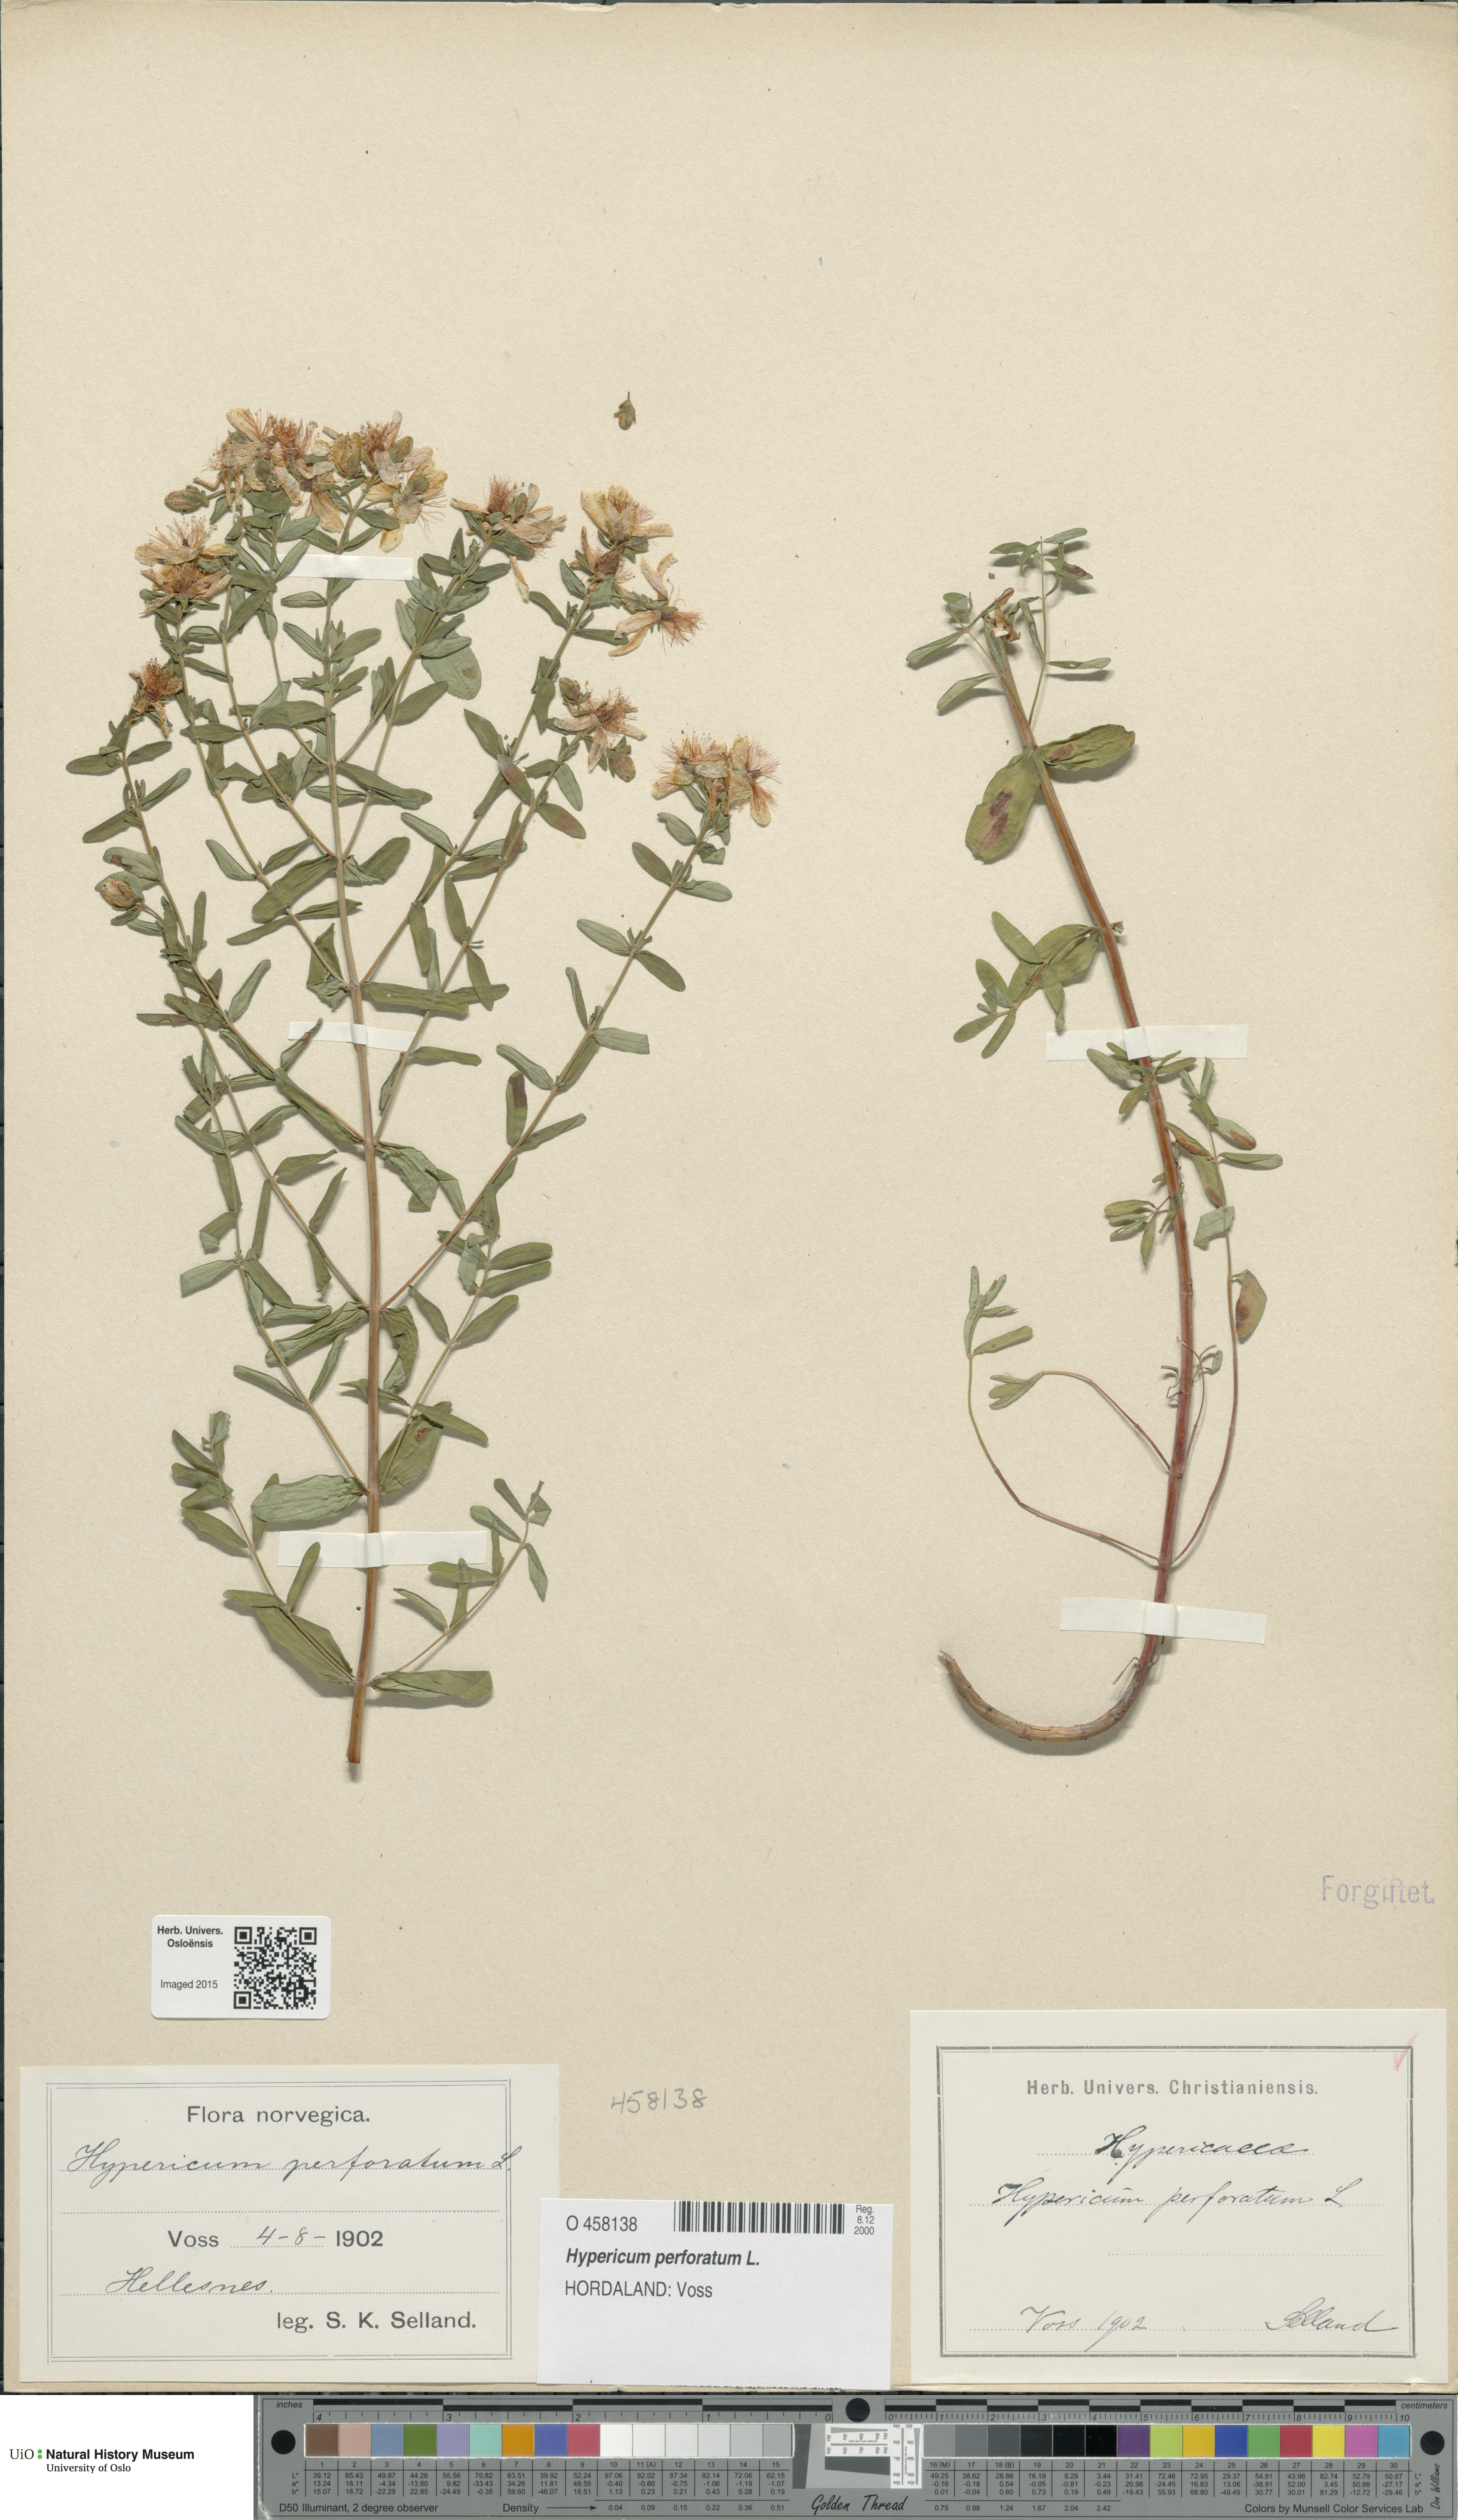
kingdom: Plantae
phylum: Tracheophyta
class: Magnoliopsida
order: Malpighiales
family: Hypericaceae
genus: Hypericum
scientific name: Hypericum perforatum
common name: Common st. johnswort
